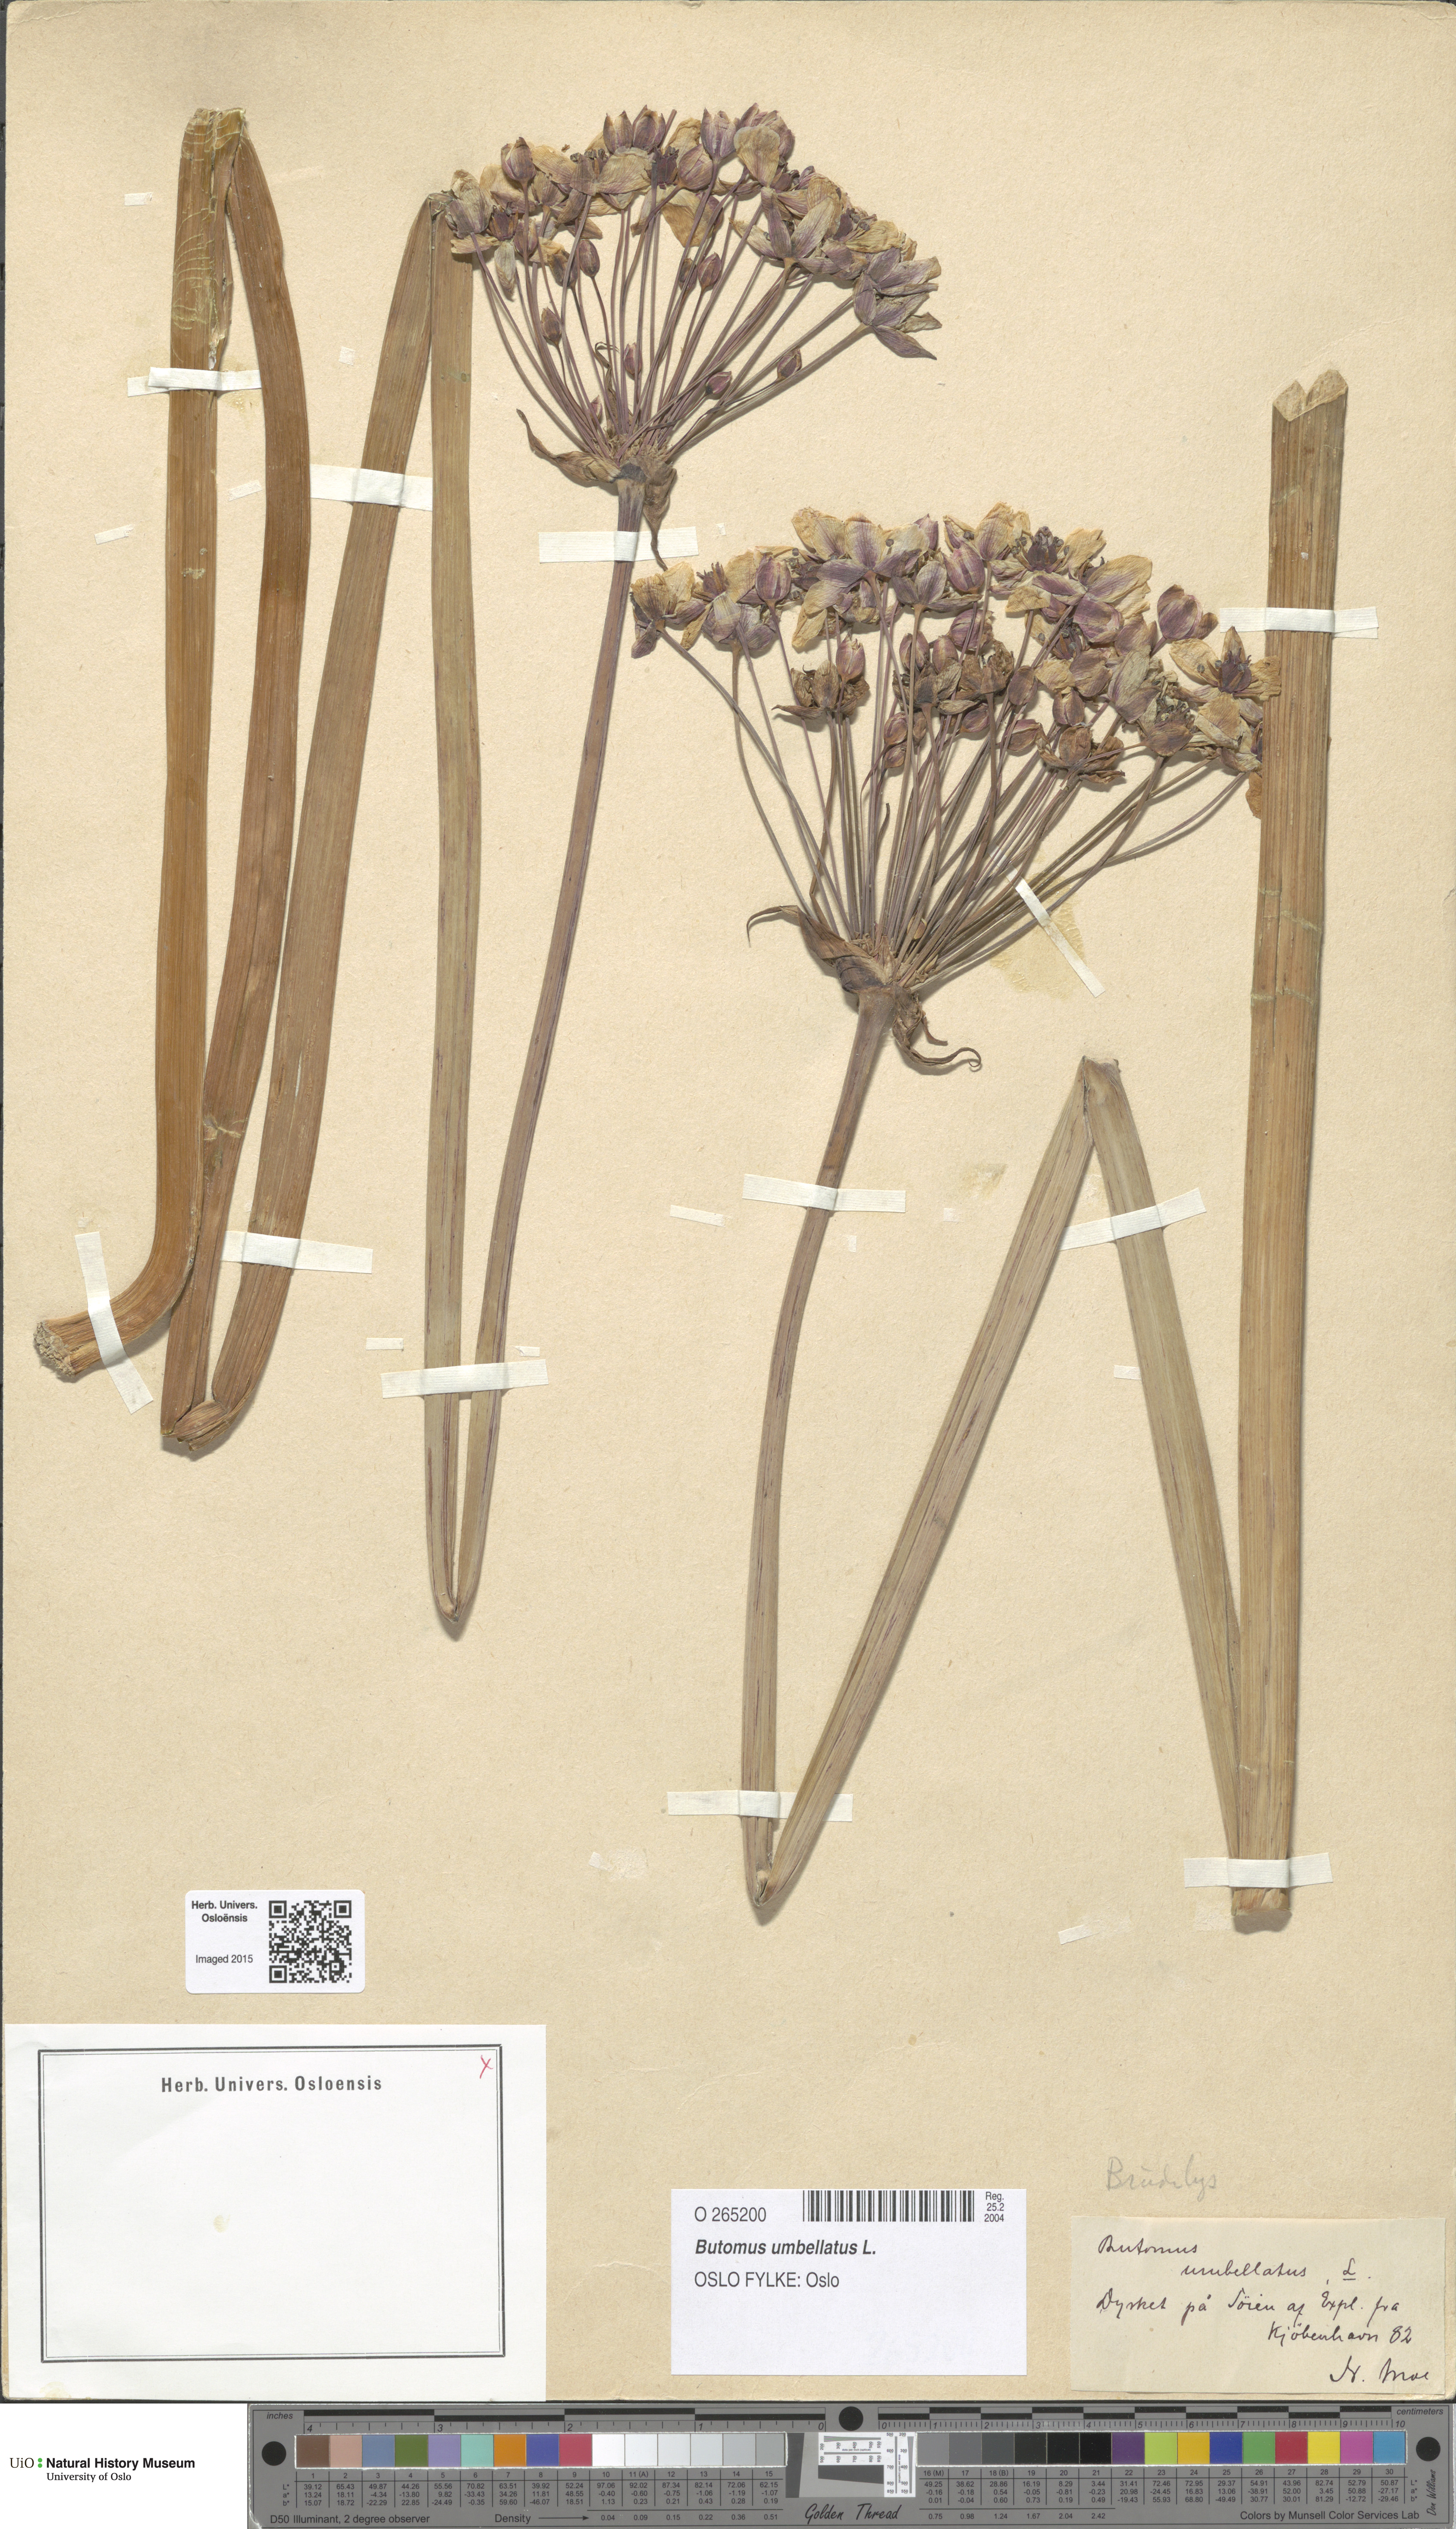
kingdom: Plantae
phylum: Tracheophyta
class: Liliopsida
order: Alismatales
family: Butomaceae
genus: Butomus
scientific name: Butomus umbellatus
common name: Flowering-rush
